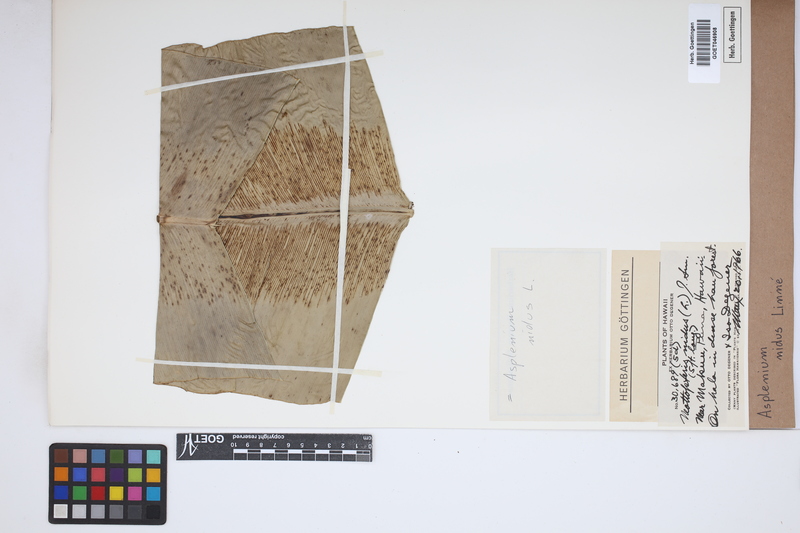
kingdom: Plantae
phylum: Tracheophyta
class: Polypodiopsida
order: Polypodiales
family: Aspleniaceae
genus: Asplenium
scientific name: Asplenium nidus
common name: Bird's-nest fern
